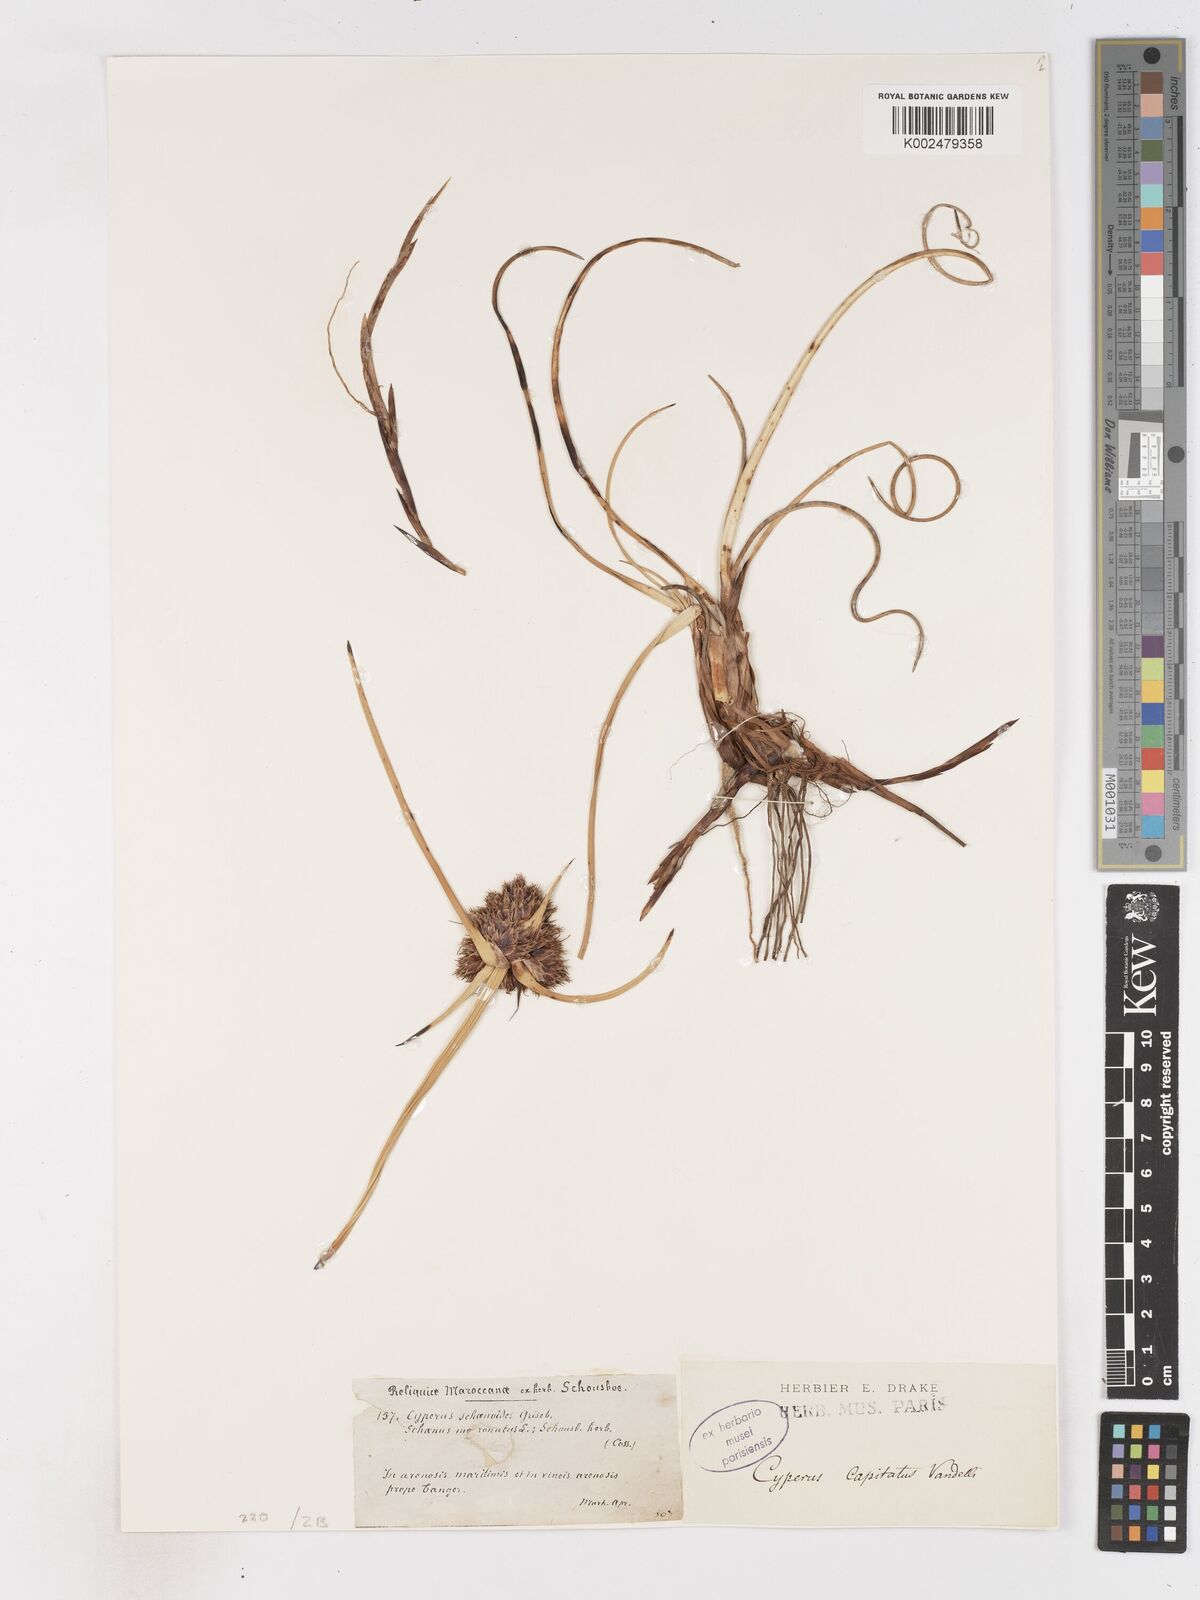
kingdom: Plantae
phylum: Tracheophyta
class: Liliopsida
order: Poales
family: Cyperaceae
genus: Cyperus
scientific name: Cyperus capitatus
